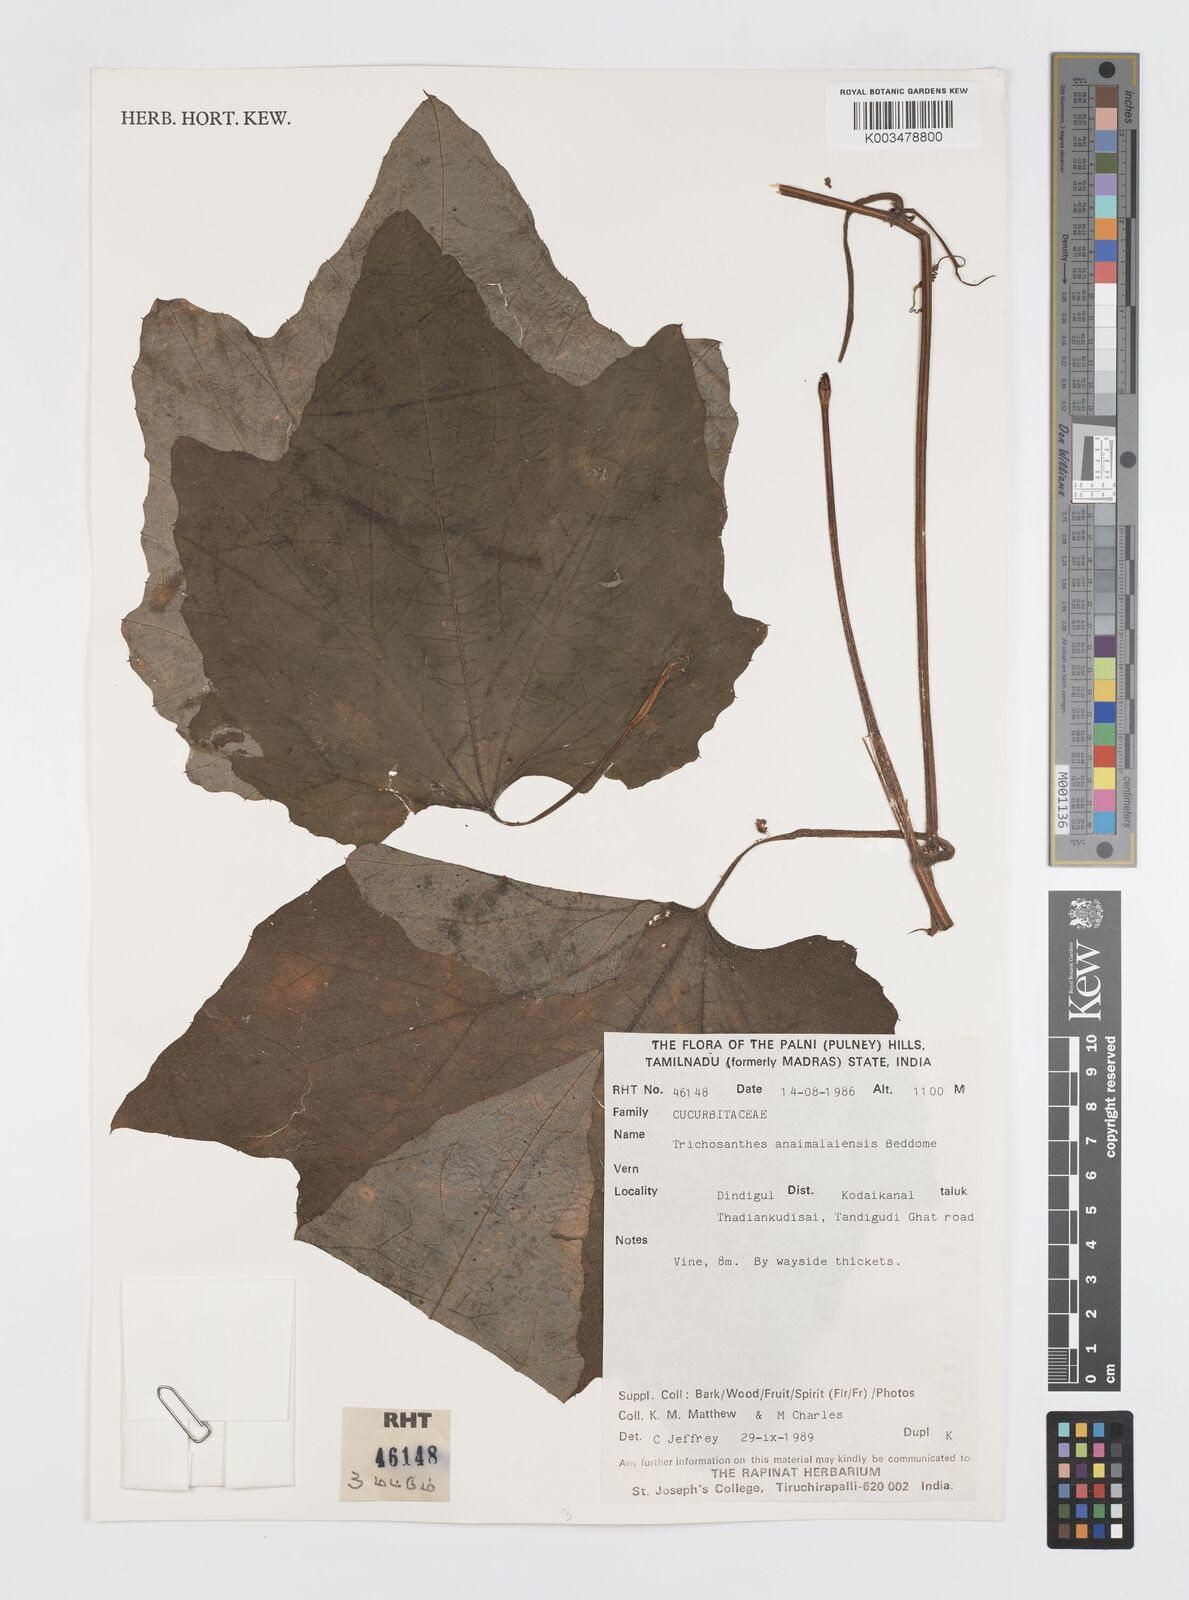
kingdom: Plantae
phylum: Tracheophyta
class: Magnoliopsida
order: Cucurbitales
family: Cucurbitaceae
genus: Trichosanthes
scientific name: Trichosanthes anaimalaiensis
